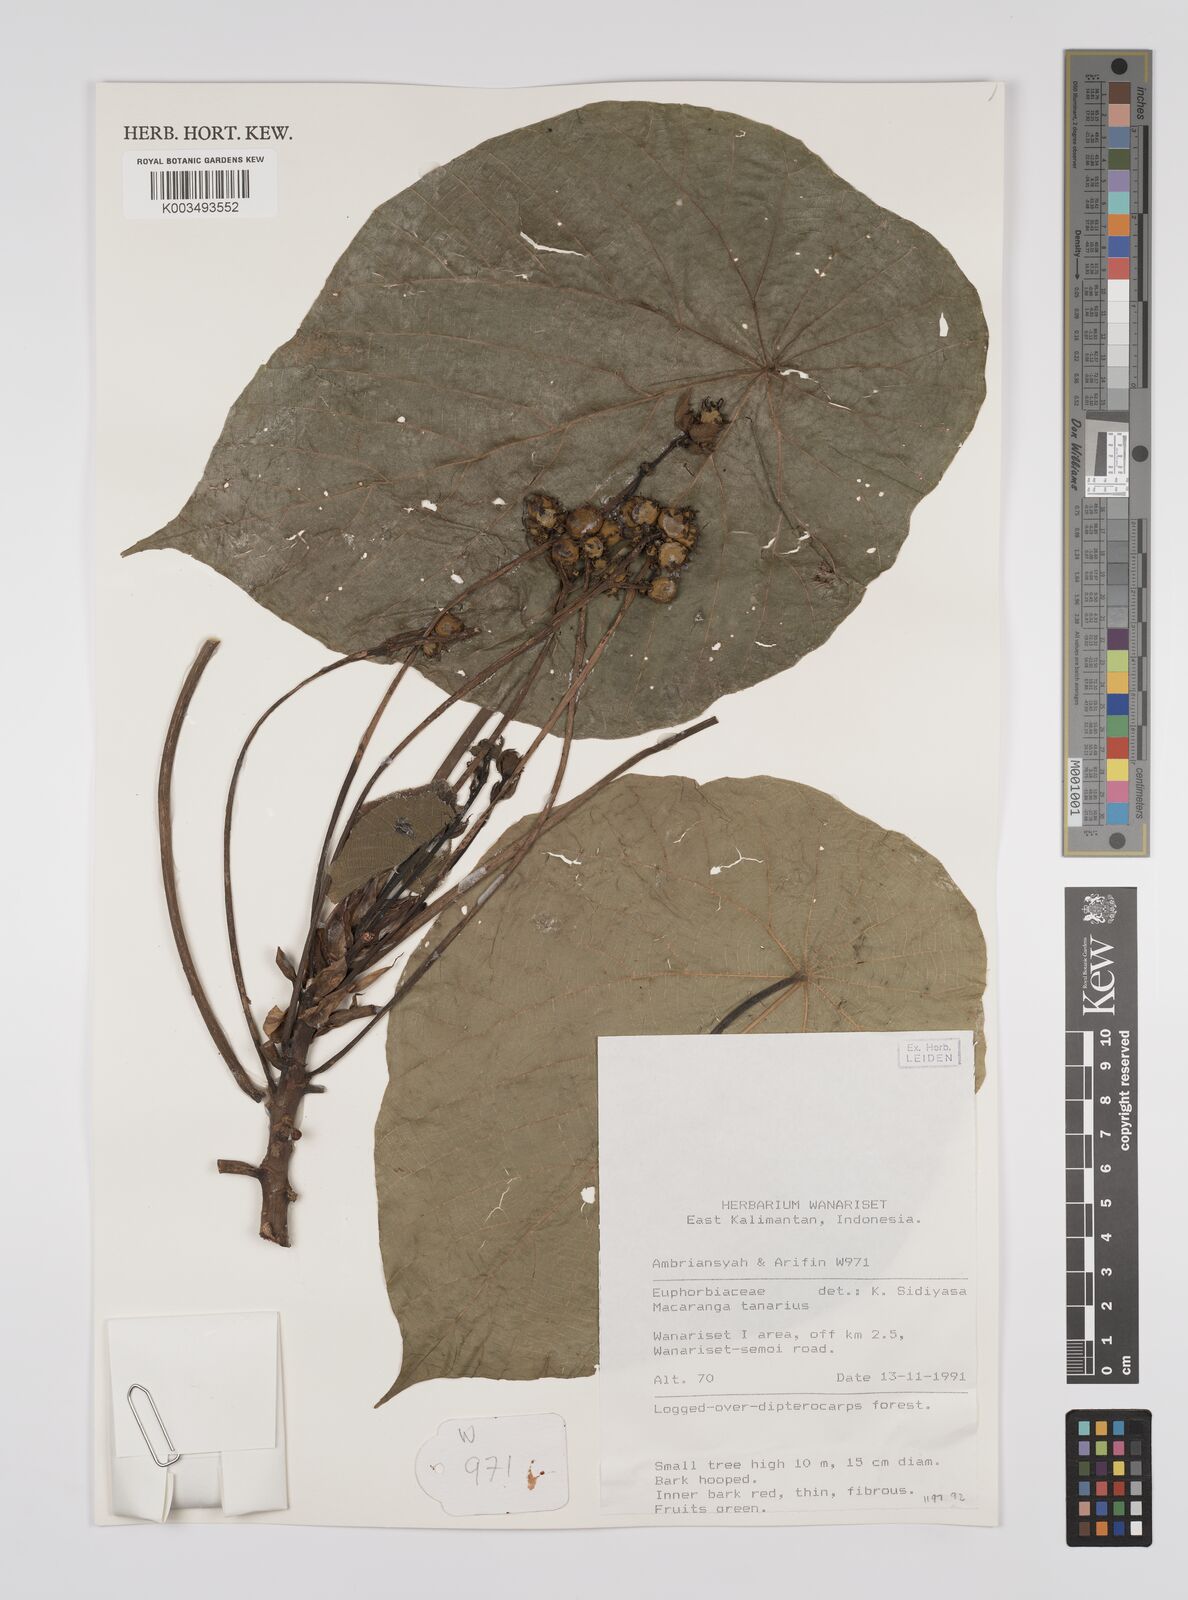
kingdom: Plantae
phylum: Tracheophyta
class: Magnoliopsida
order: Malpighiales
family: Euphorbiaceae
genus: Macaranga
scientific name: Macaranga tanarius
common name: Parasol leaf tree
